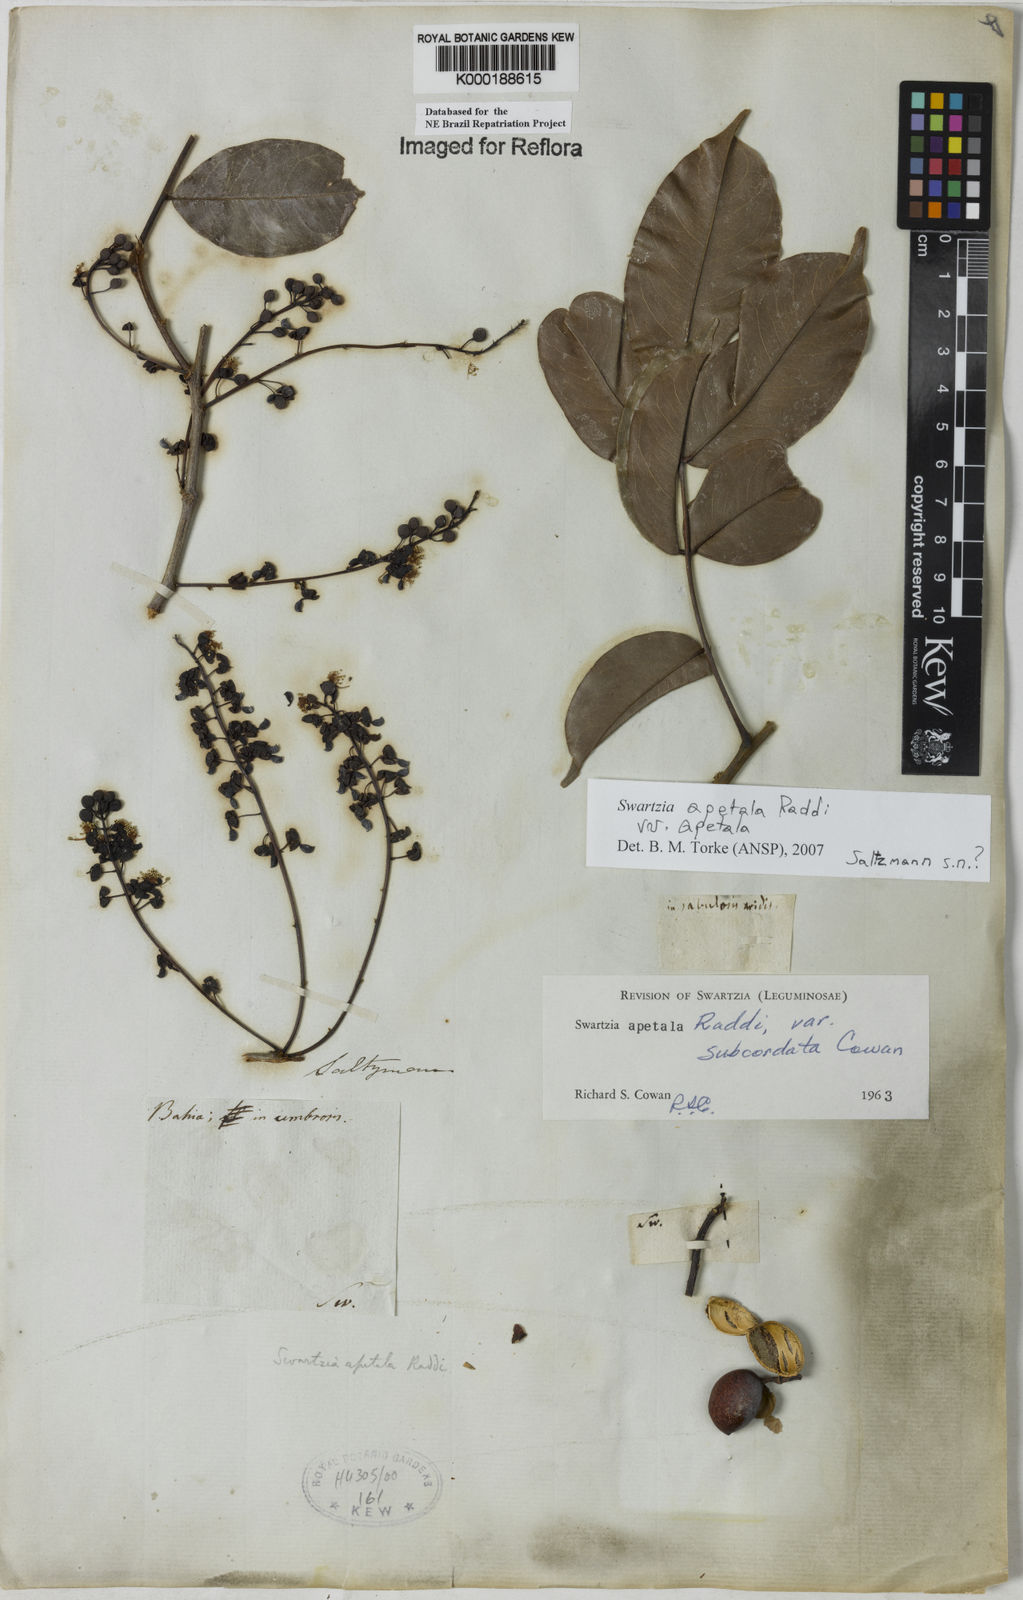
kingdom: Plantae
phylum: Tracheophyta
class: Magnoliopsida
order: Fabales
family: Fabaceae
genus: Swartzia
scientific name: Swartzia apetala
